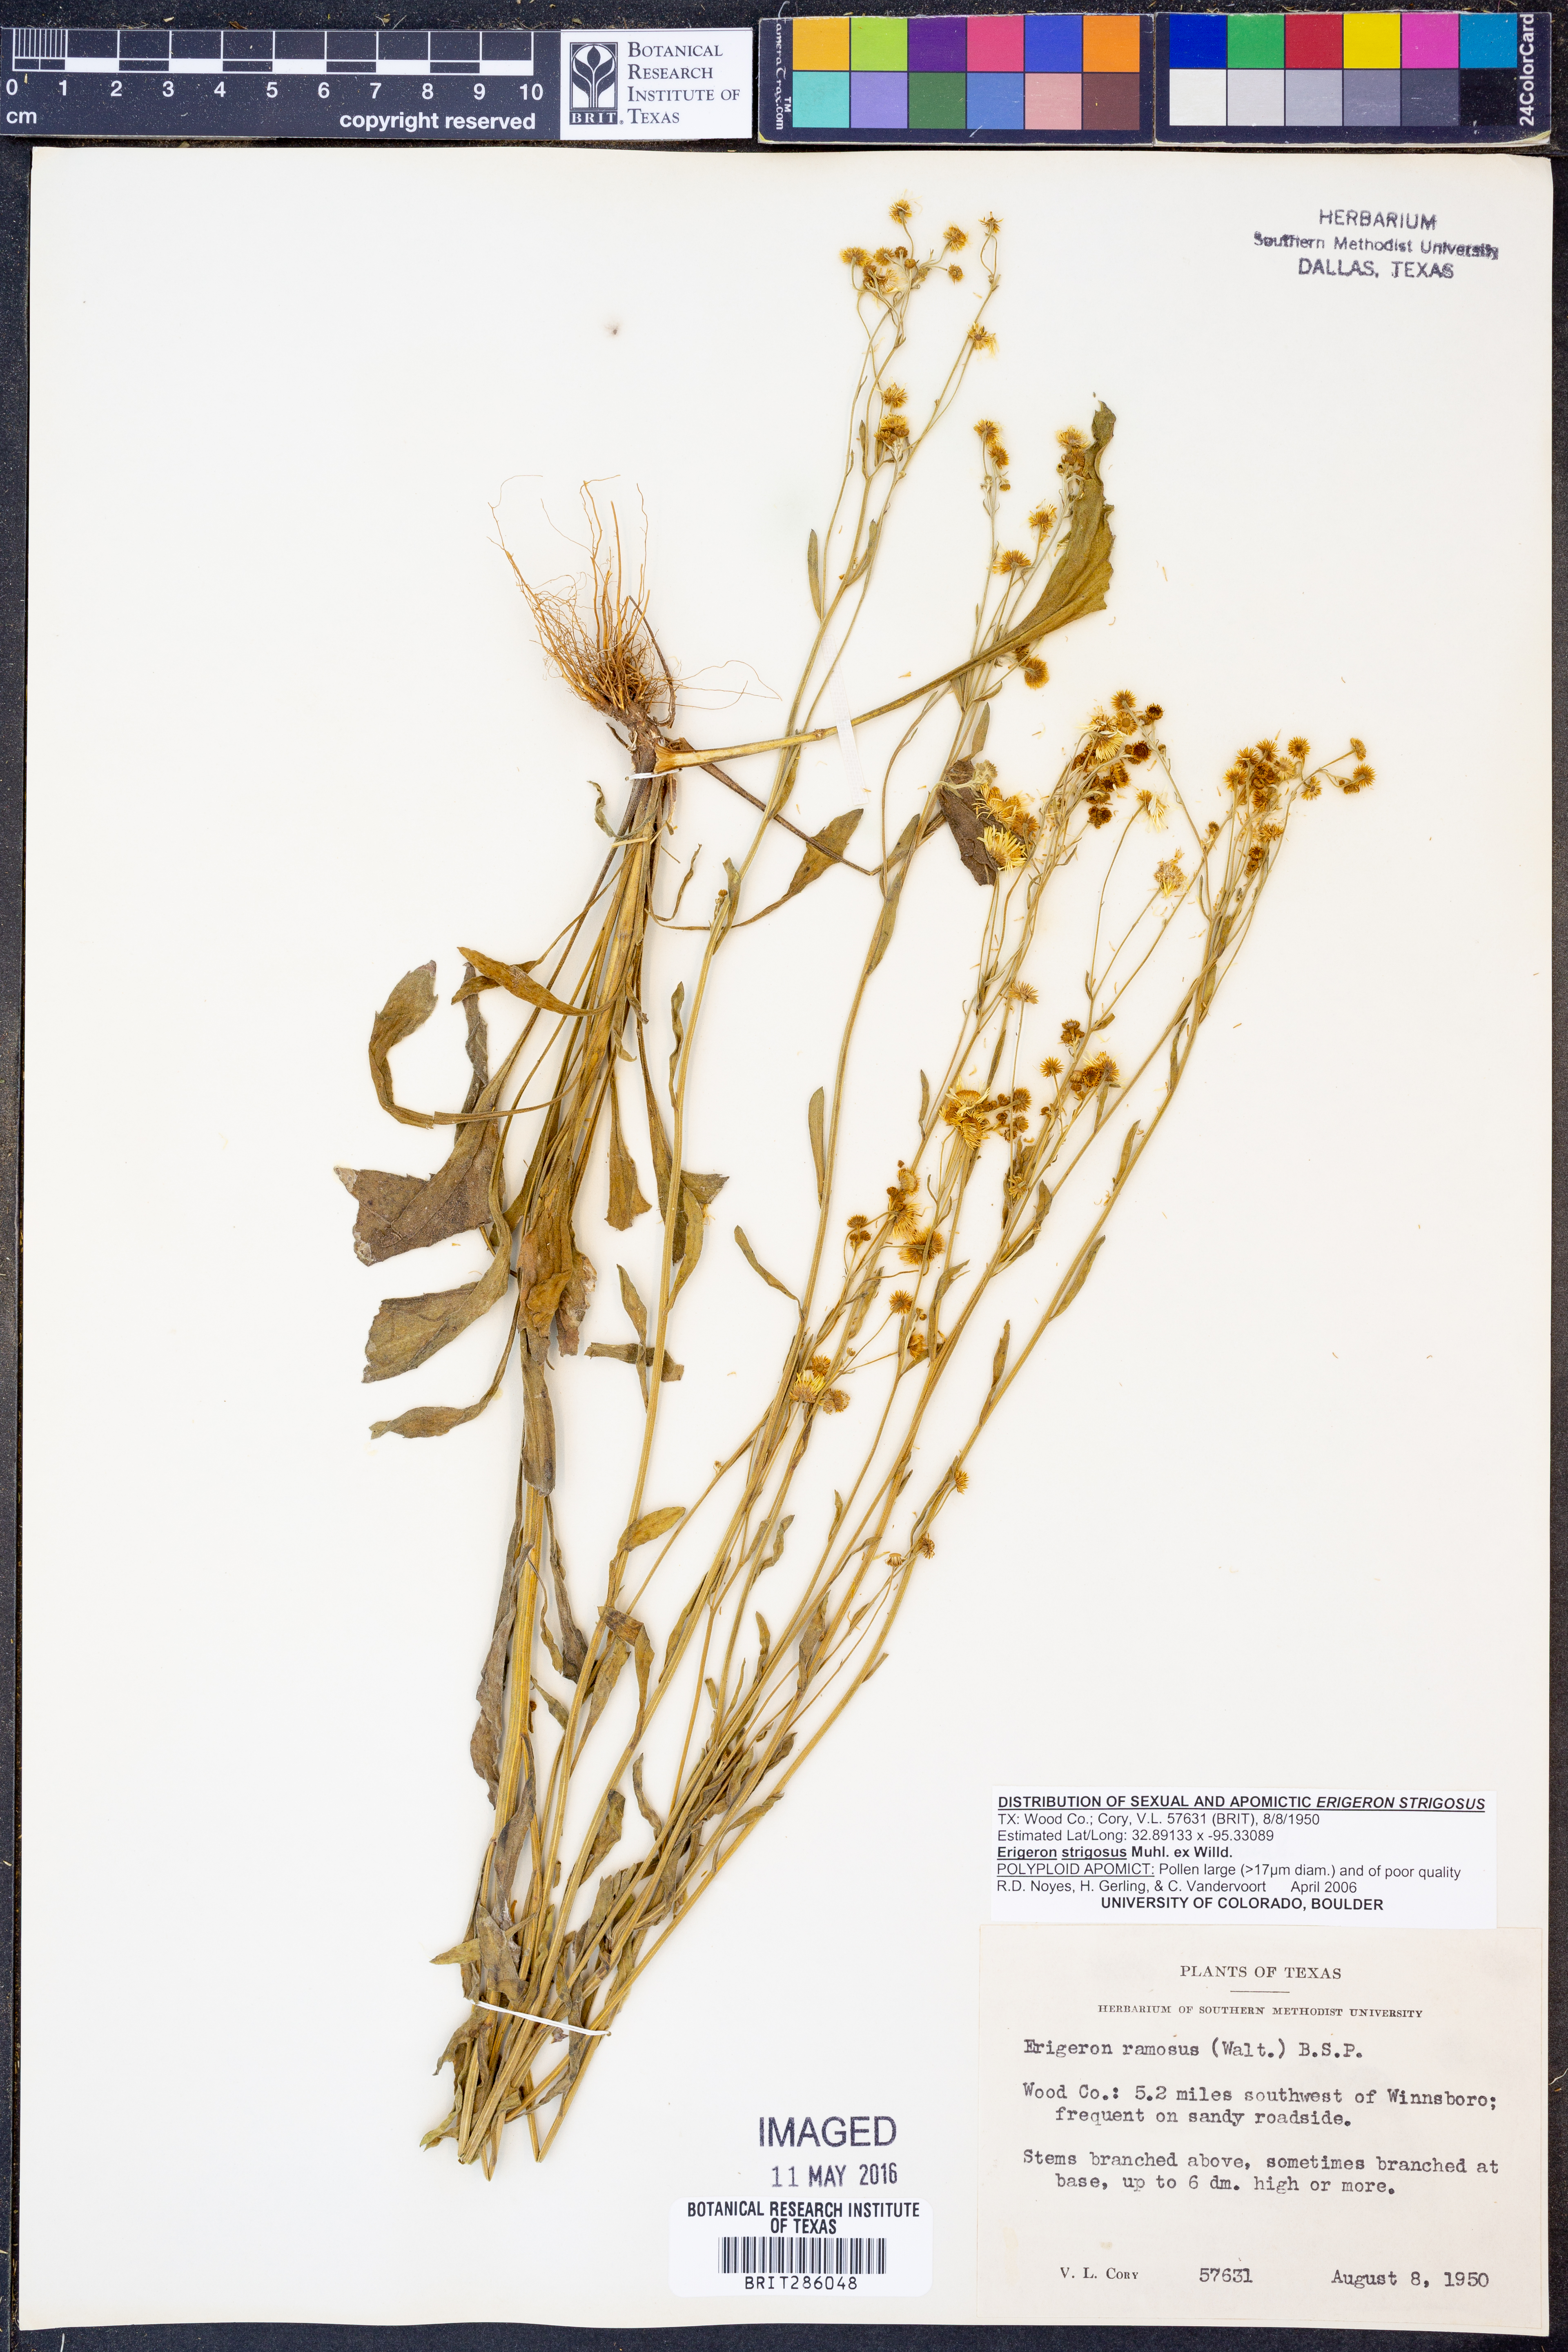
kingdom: Plantae
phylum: Tracheophyta
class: Magnoliopsida
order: Asterales
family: Asteraceae
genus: Erigeron
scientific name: Erigeron strigosus
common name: Common eastern fleabane
